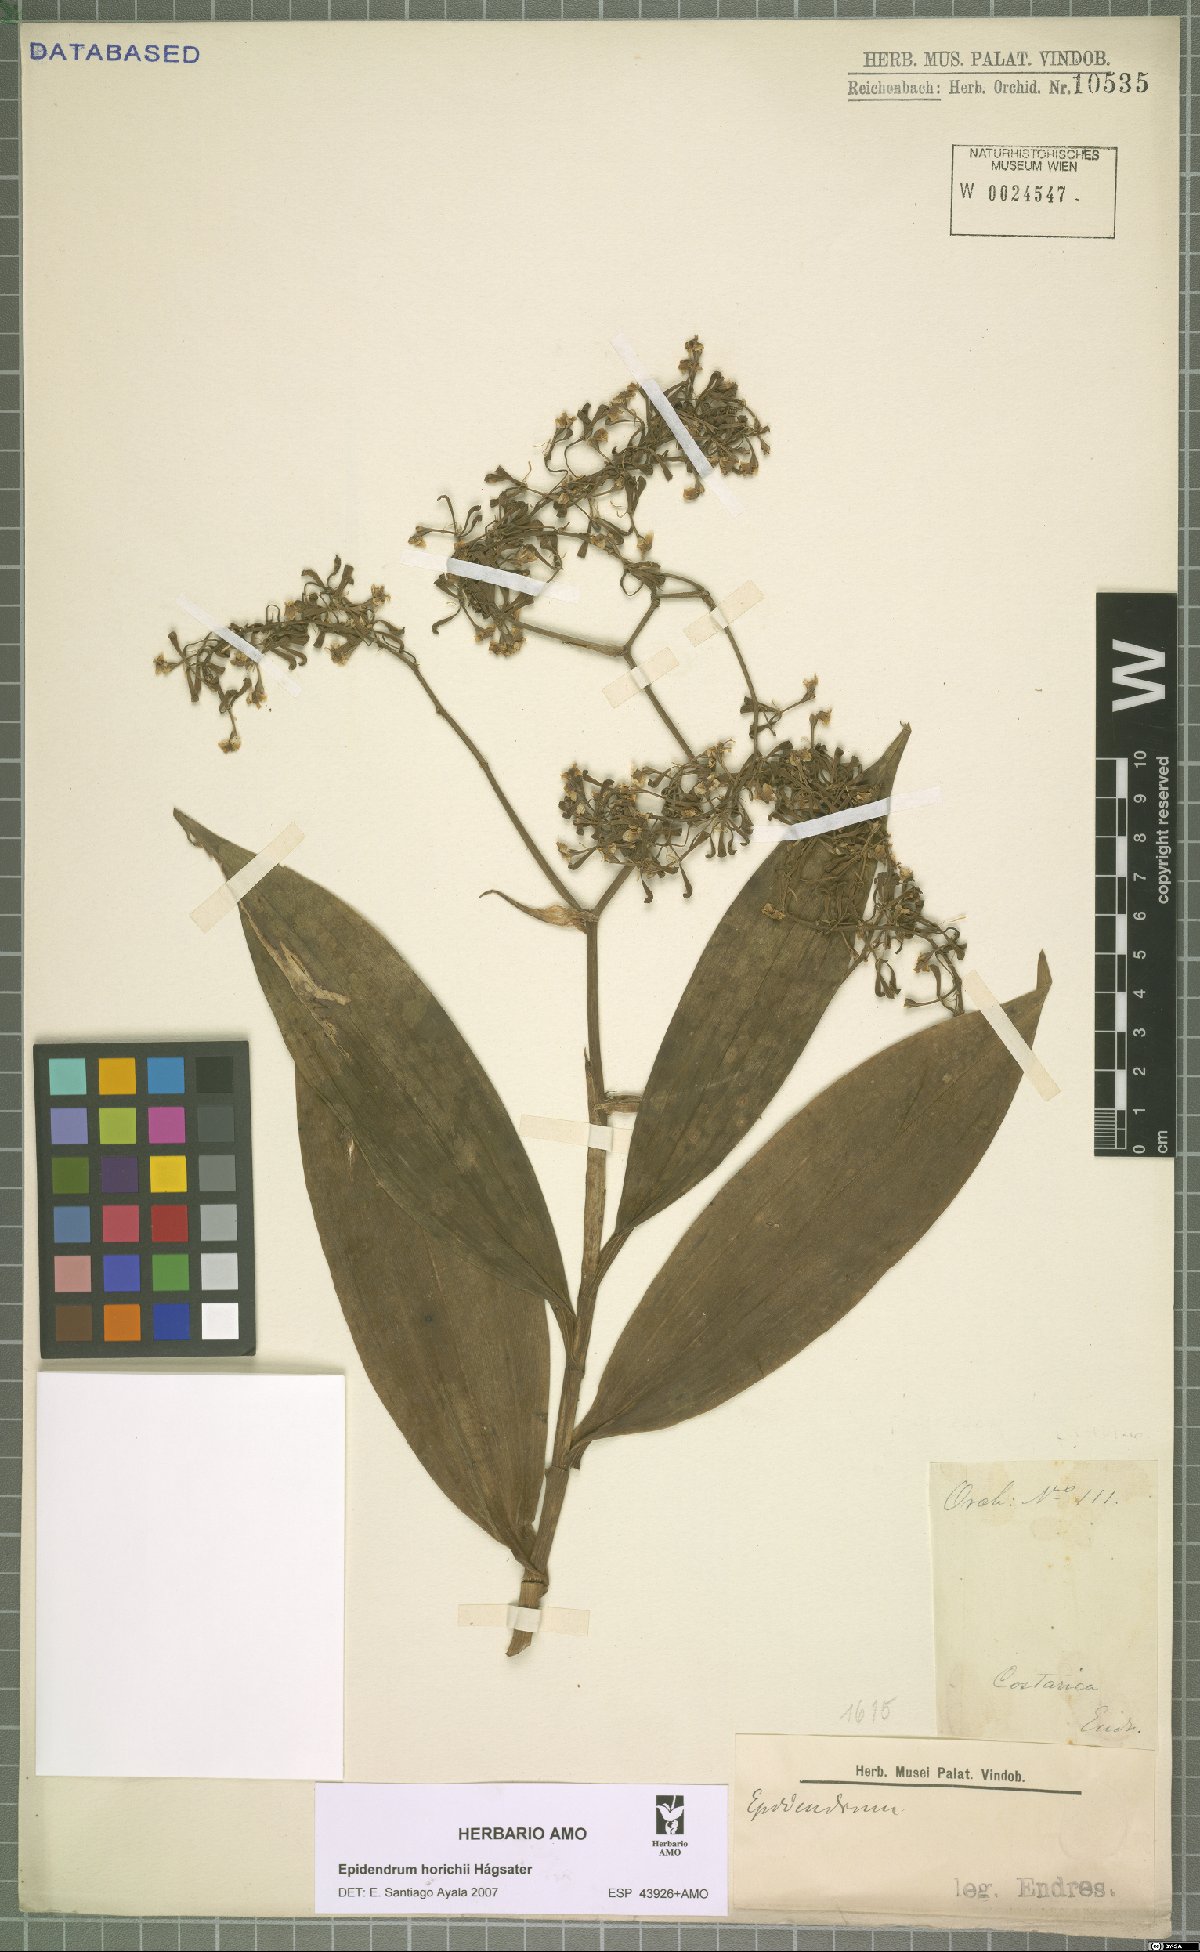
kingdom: Plantae
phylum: Tracheophyta
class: Liliopsida
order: Asparagales
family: Orchidaceae
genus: Epidendrum
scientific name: Epidendrum horichii
